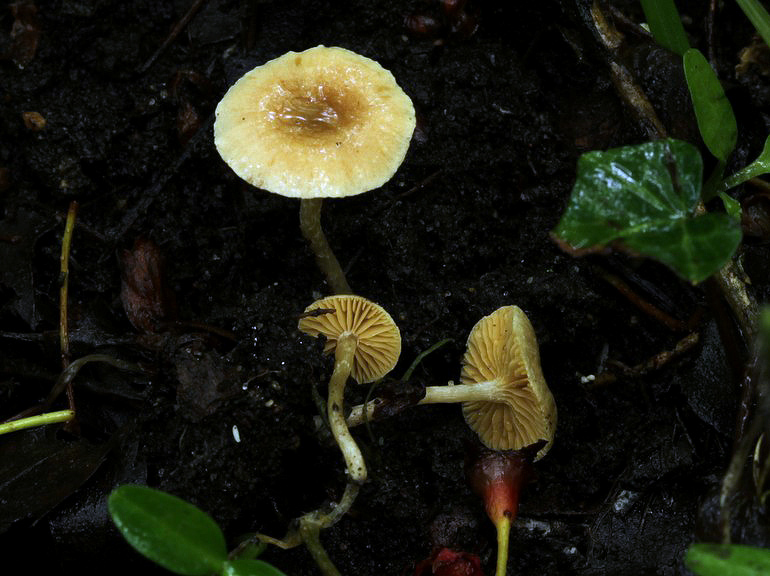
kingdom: Fungi
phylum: Basidiomycota
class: Agaricomycetes
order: Agaricales
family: Tubariaceae
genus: Tubaria
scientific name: Tubaria dispersa
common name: tjørne-fnughat
